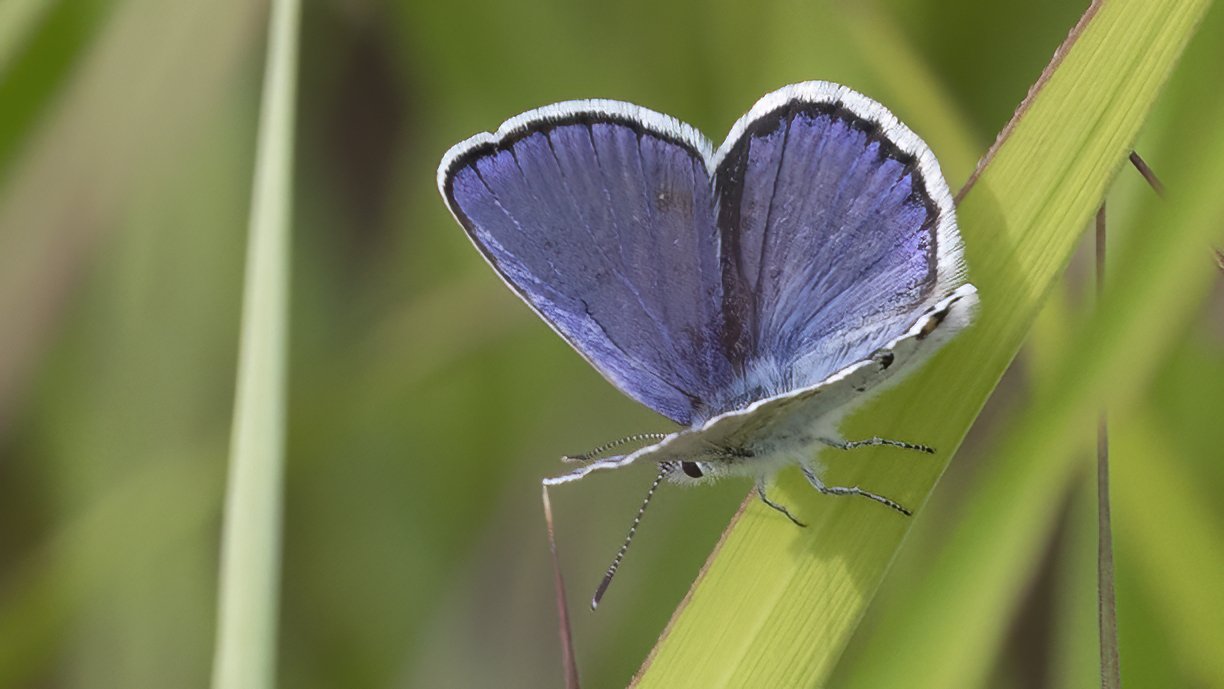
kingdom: Animalia
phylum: Arthropoda
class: Insecta
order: Lepidoptera
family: Lycaenidae
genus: Plebejus
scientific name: Plebejus samuelis
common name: Karner Blue
